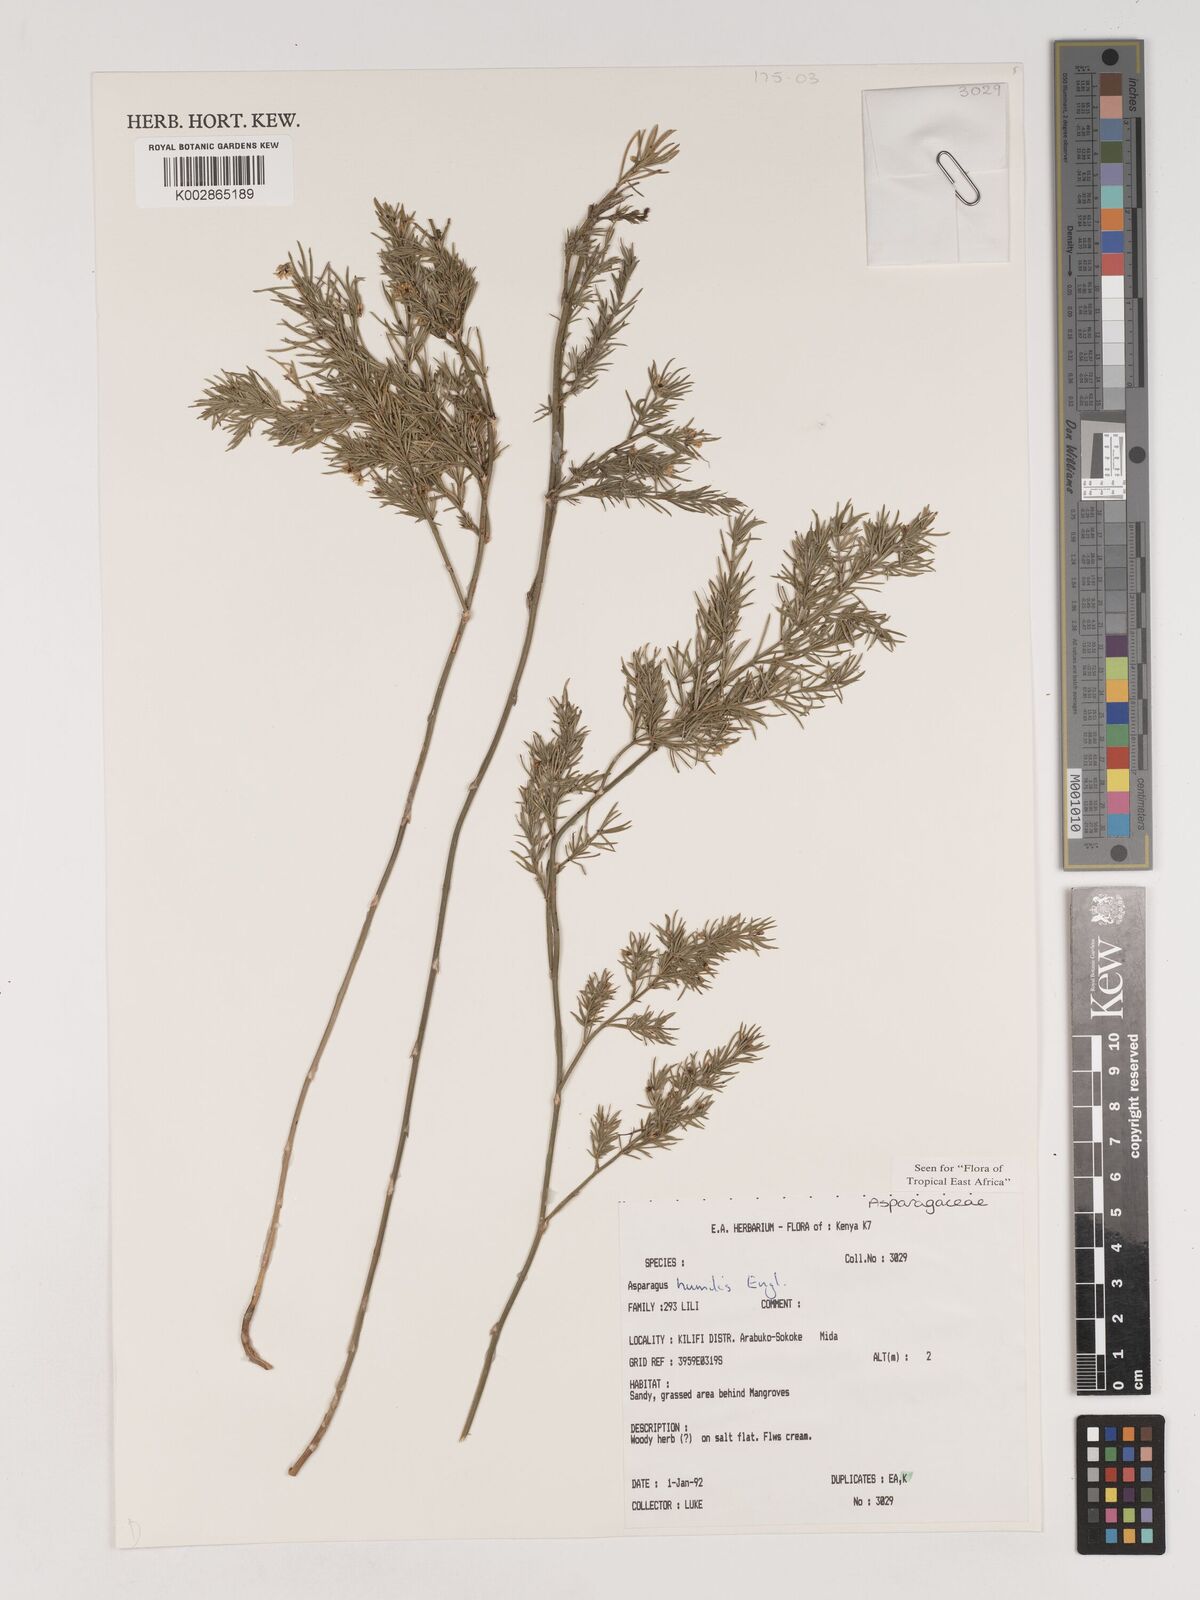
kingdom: Plantae
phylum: Tracheophyta
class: Liliopsida
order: Asparagales
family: Asparagaceae
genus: Asparagus
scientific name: Asparagus asparagoides
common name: African asparagus fern
